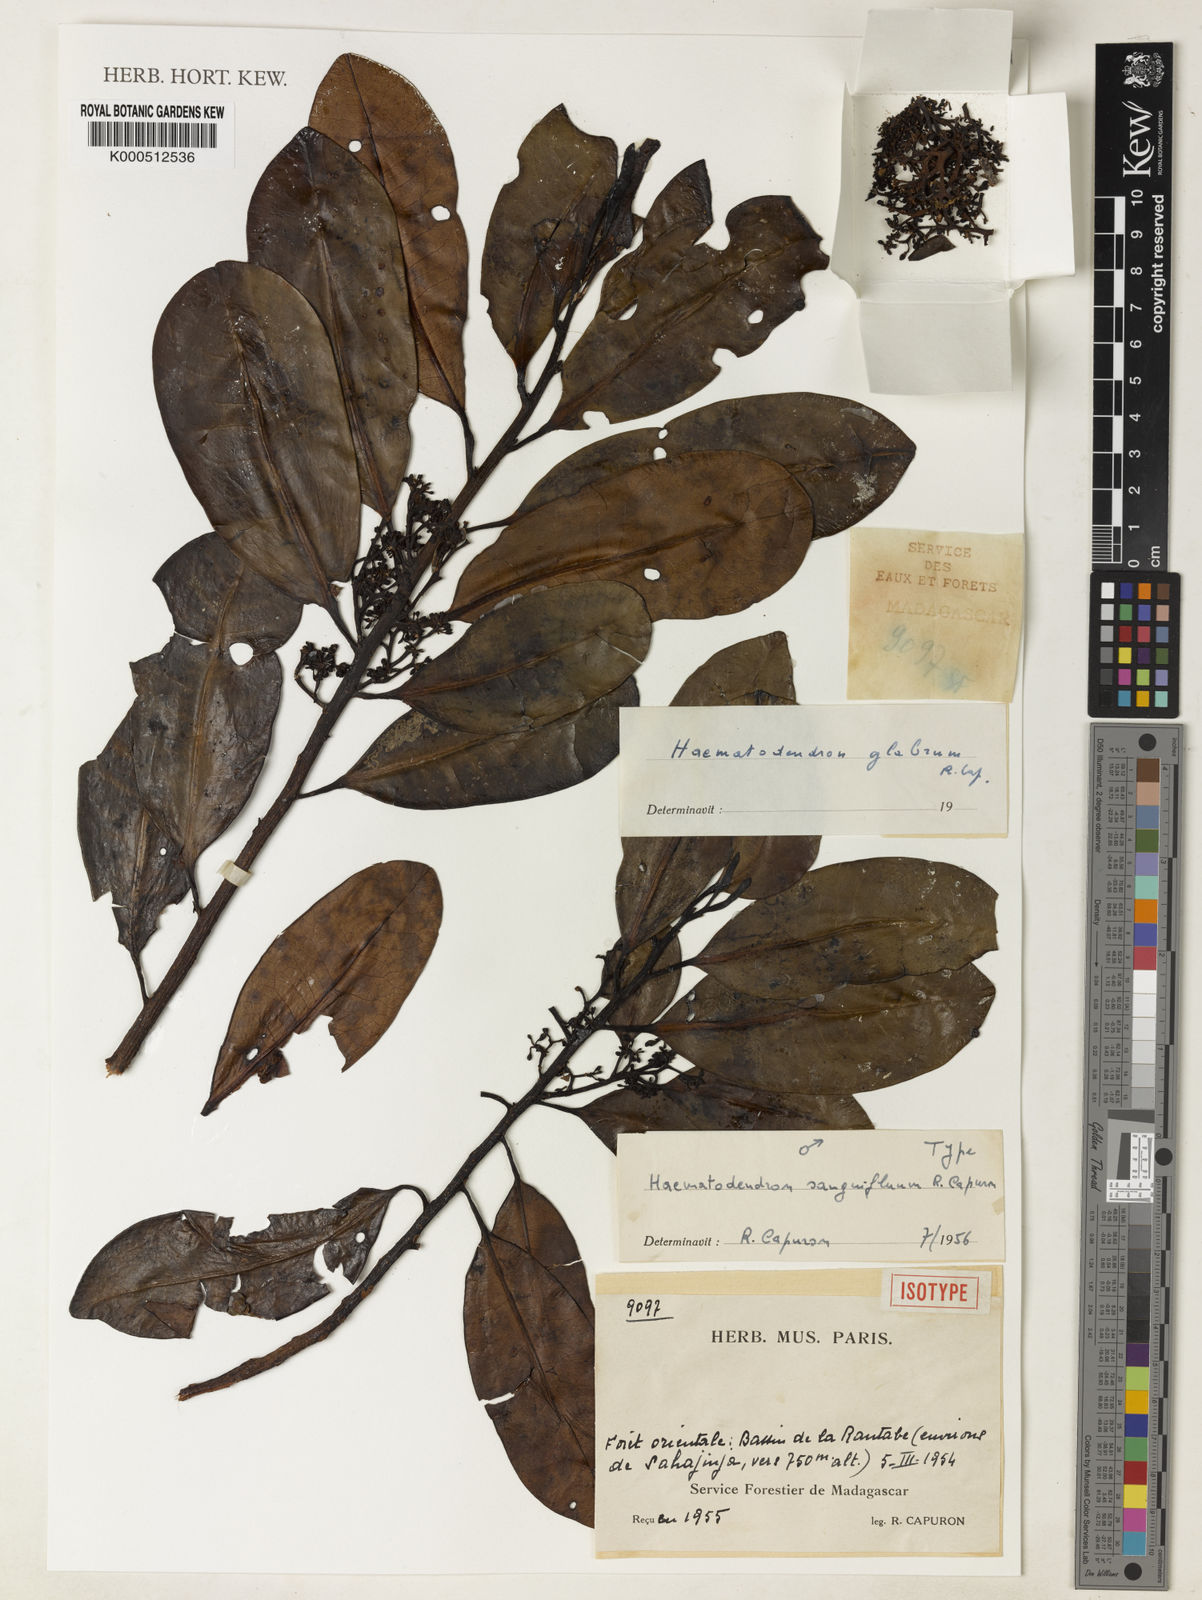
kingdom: Plantae
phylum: Tracheophyta
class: Magnoliopsida
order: Magnoliales
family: Myristicaceae
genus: Haematodendron
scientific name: Haematodendron glabrum
